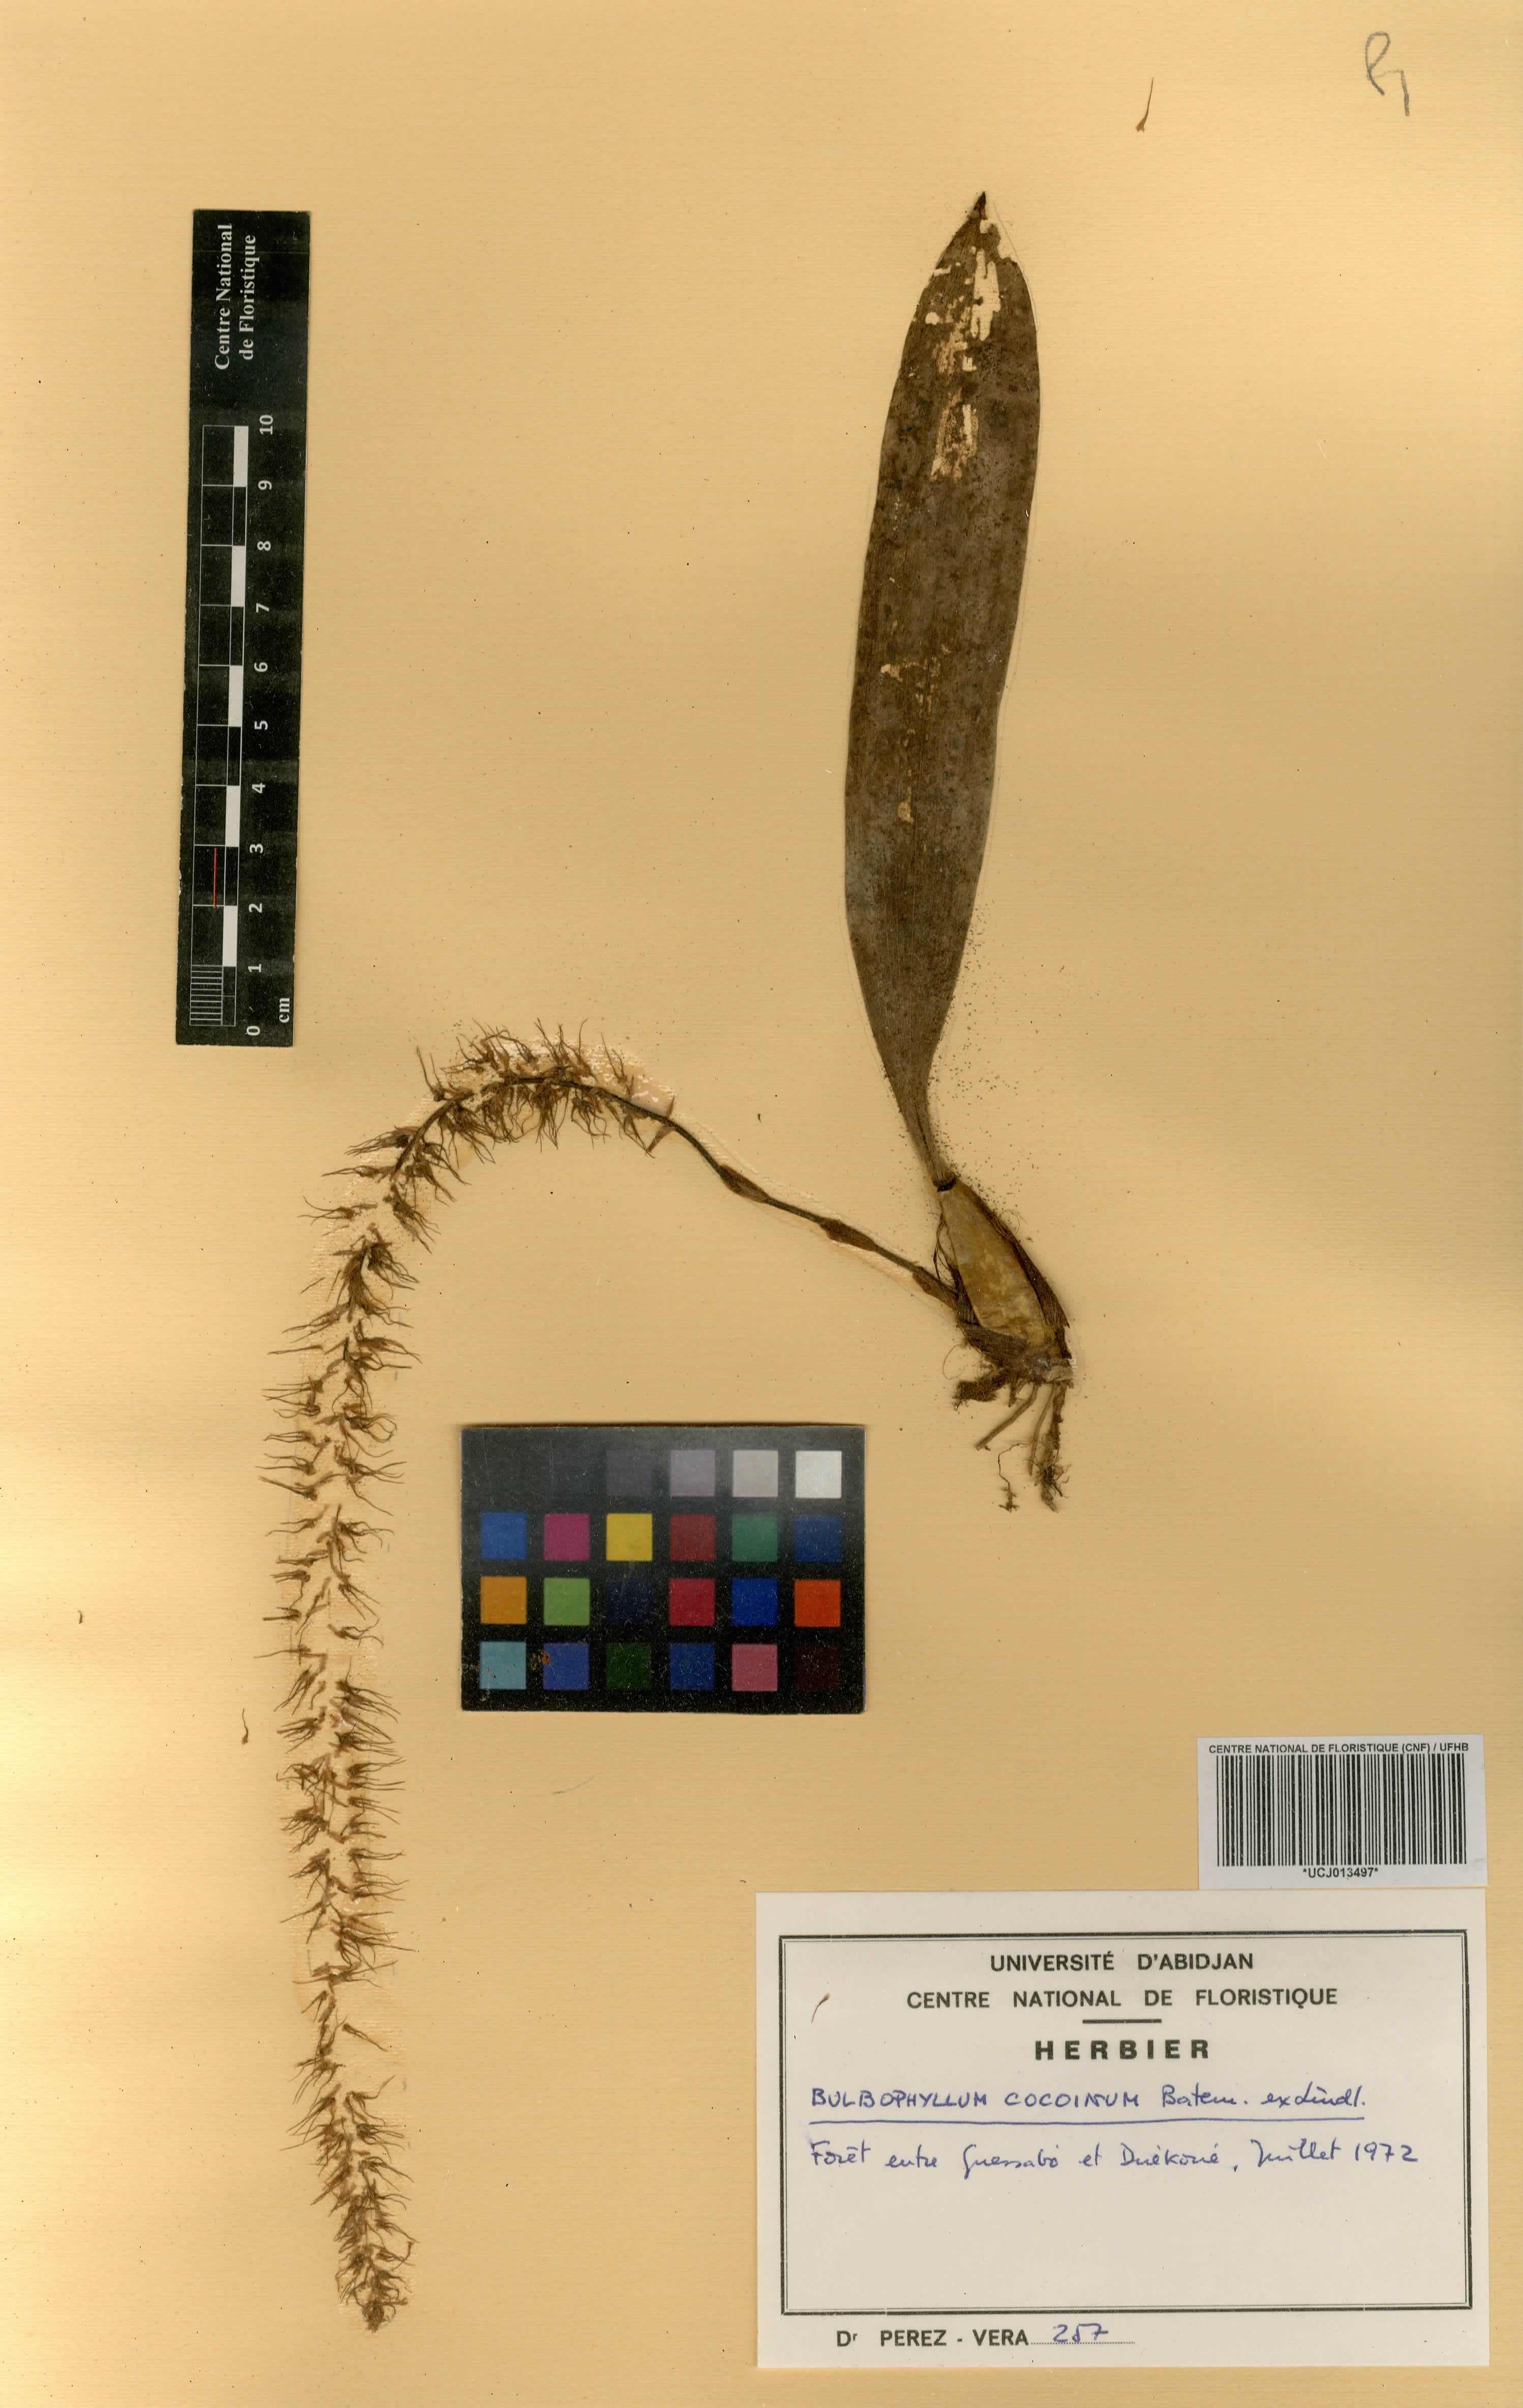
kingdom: Plantae
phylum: Tracheophyta
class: Liliopsida
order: Asparagales
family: Orchidaceae
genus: Bulbophyllum
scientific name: Bulbophyllum cocoinum
